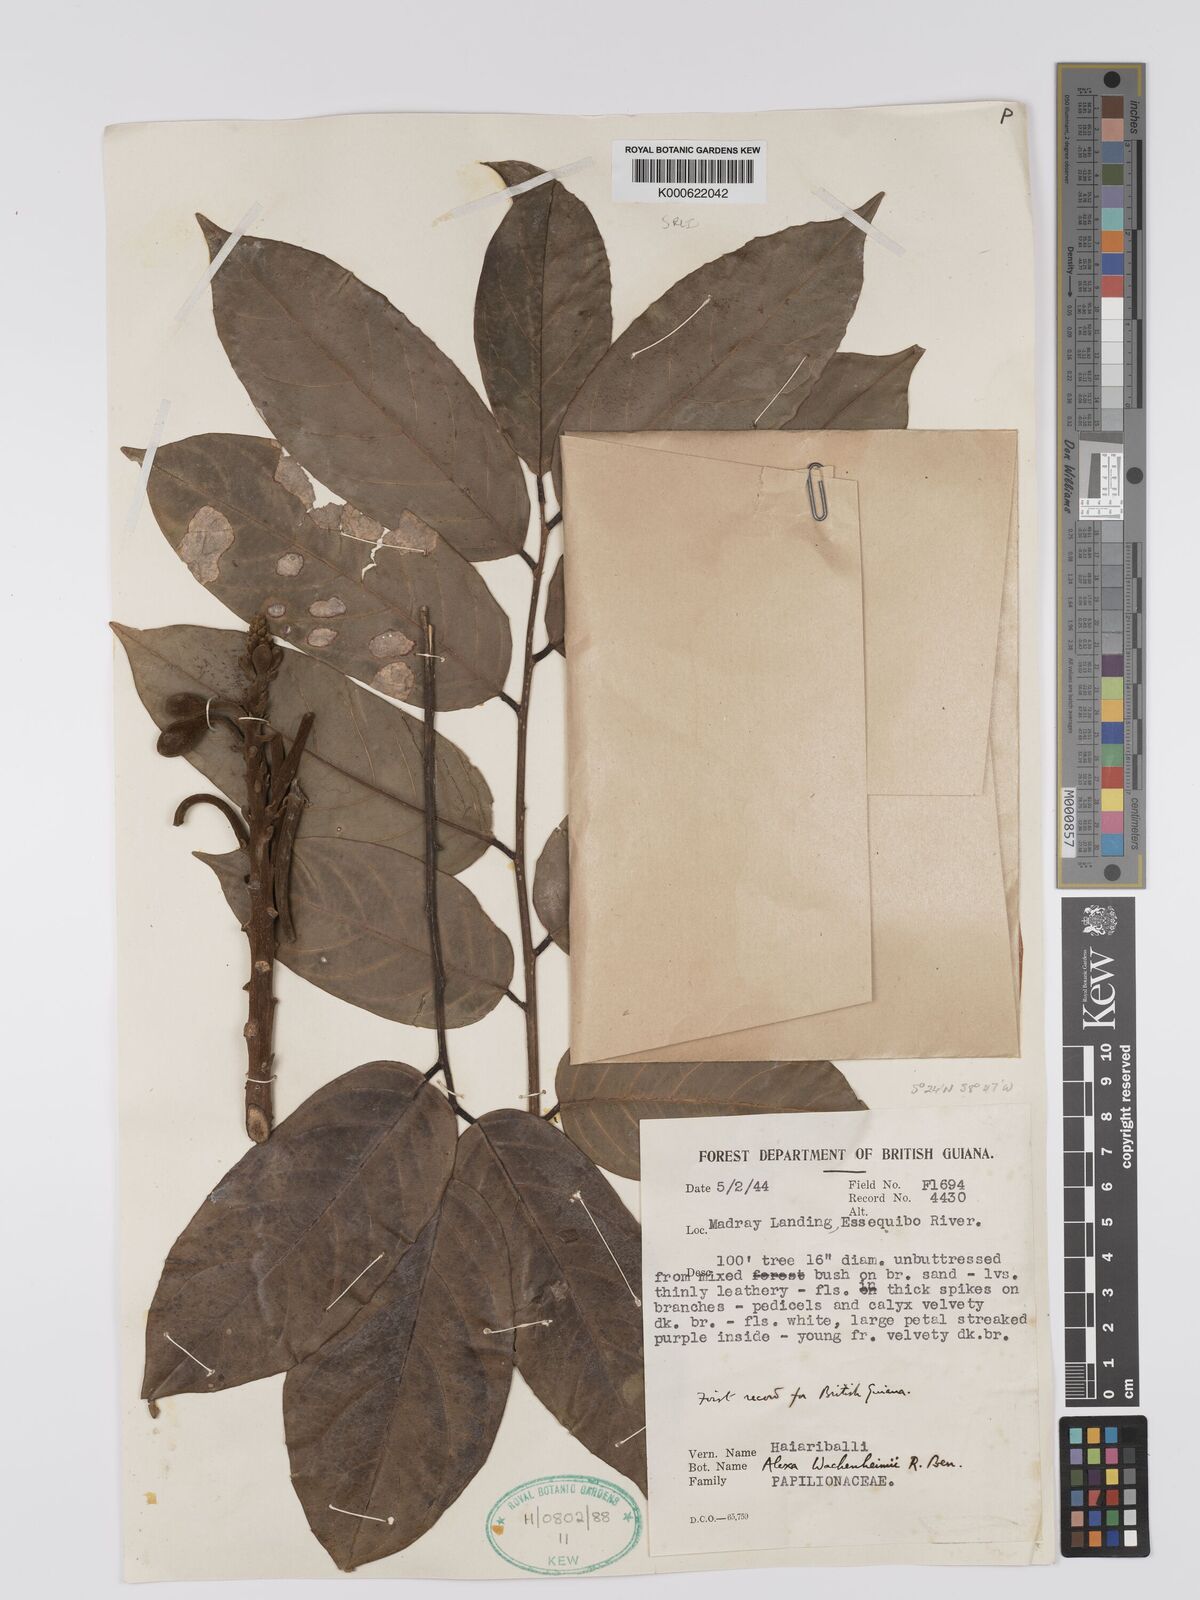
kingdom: Plantae
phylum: Tracheophyta
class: Magnoliopsida
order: Fabales
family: Fabaceae
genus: Alexa
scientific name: Alexa wachenheimii
